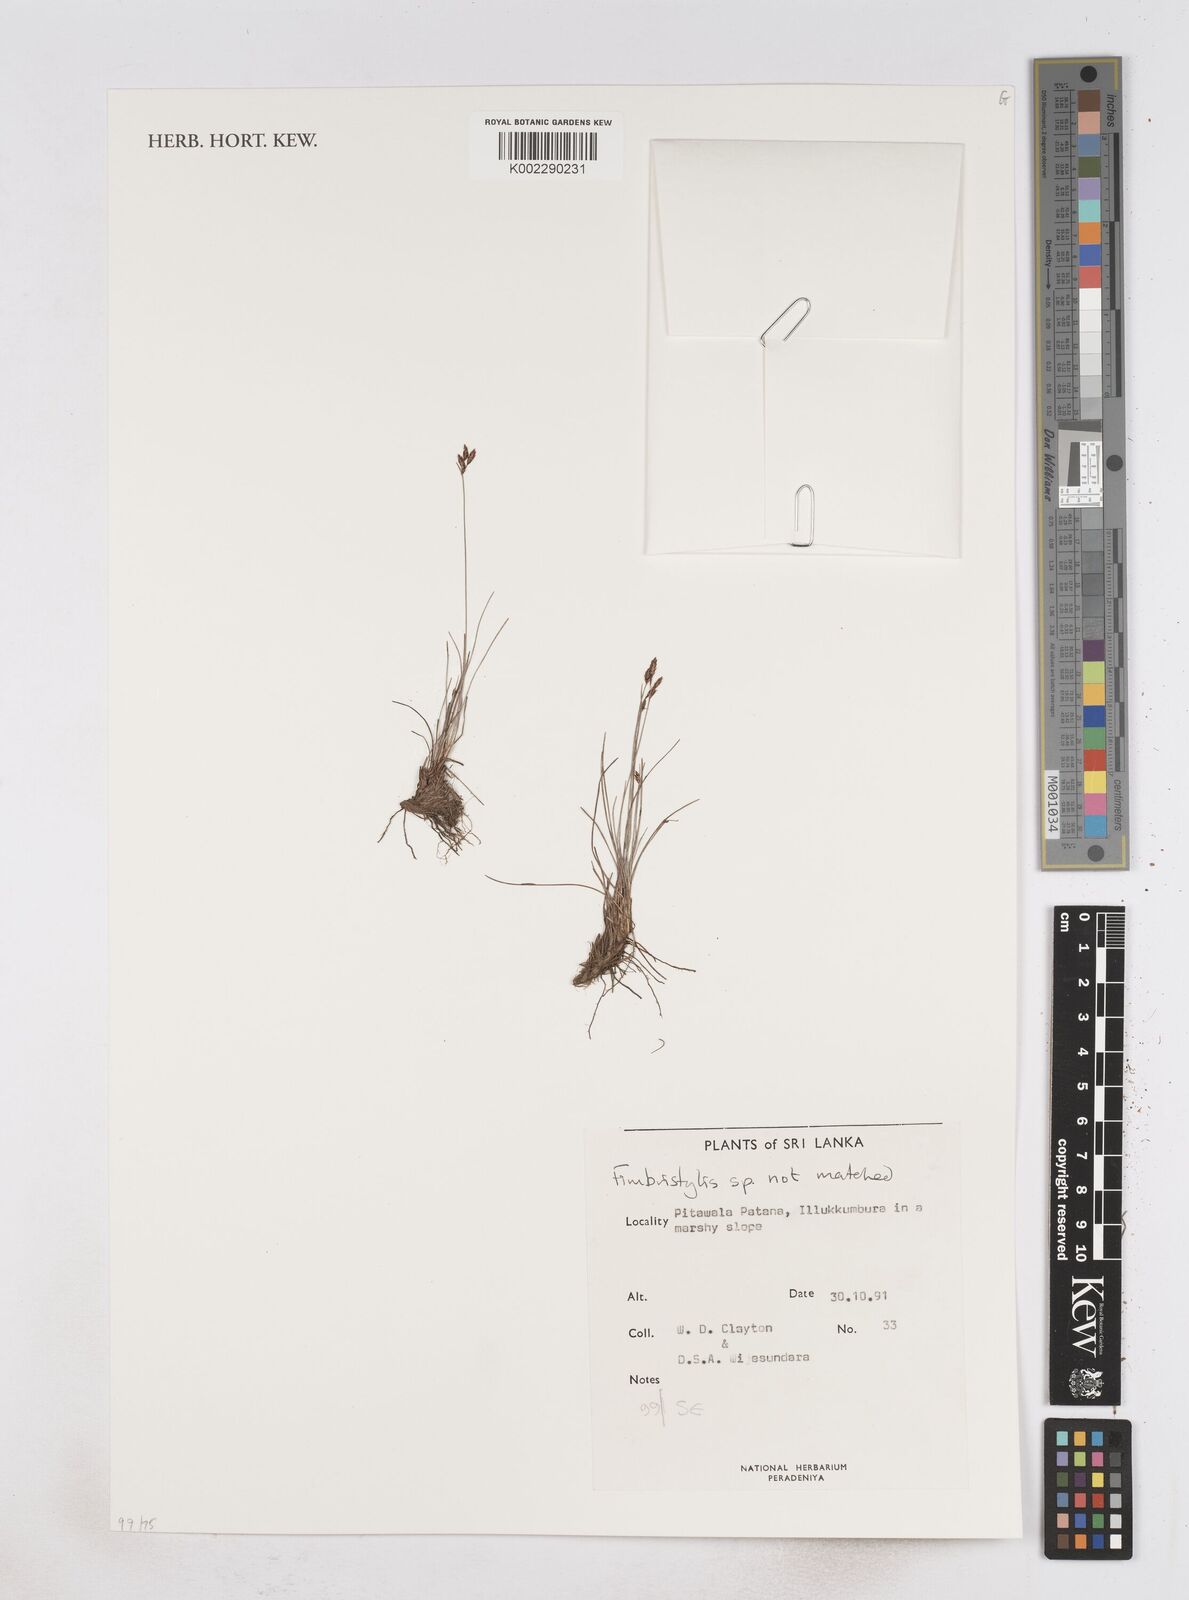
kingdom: Plantae
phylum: Tracheophyta
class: Liliopsida
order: Poales
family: Cyperaceae
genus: Fimbristylis
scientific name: Fimbristylis
